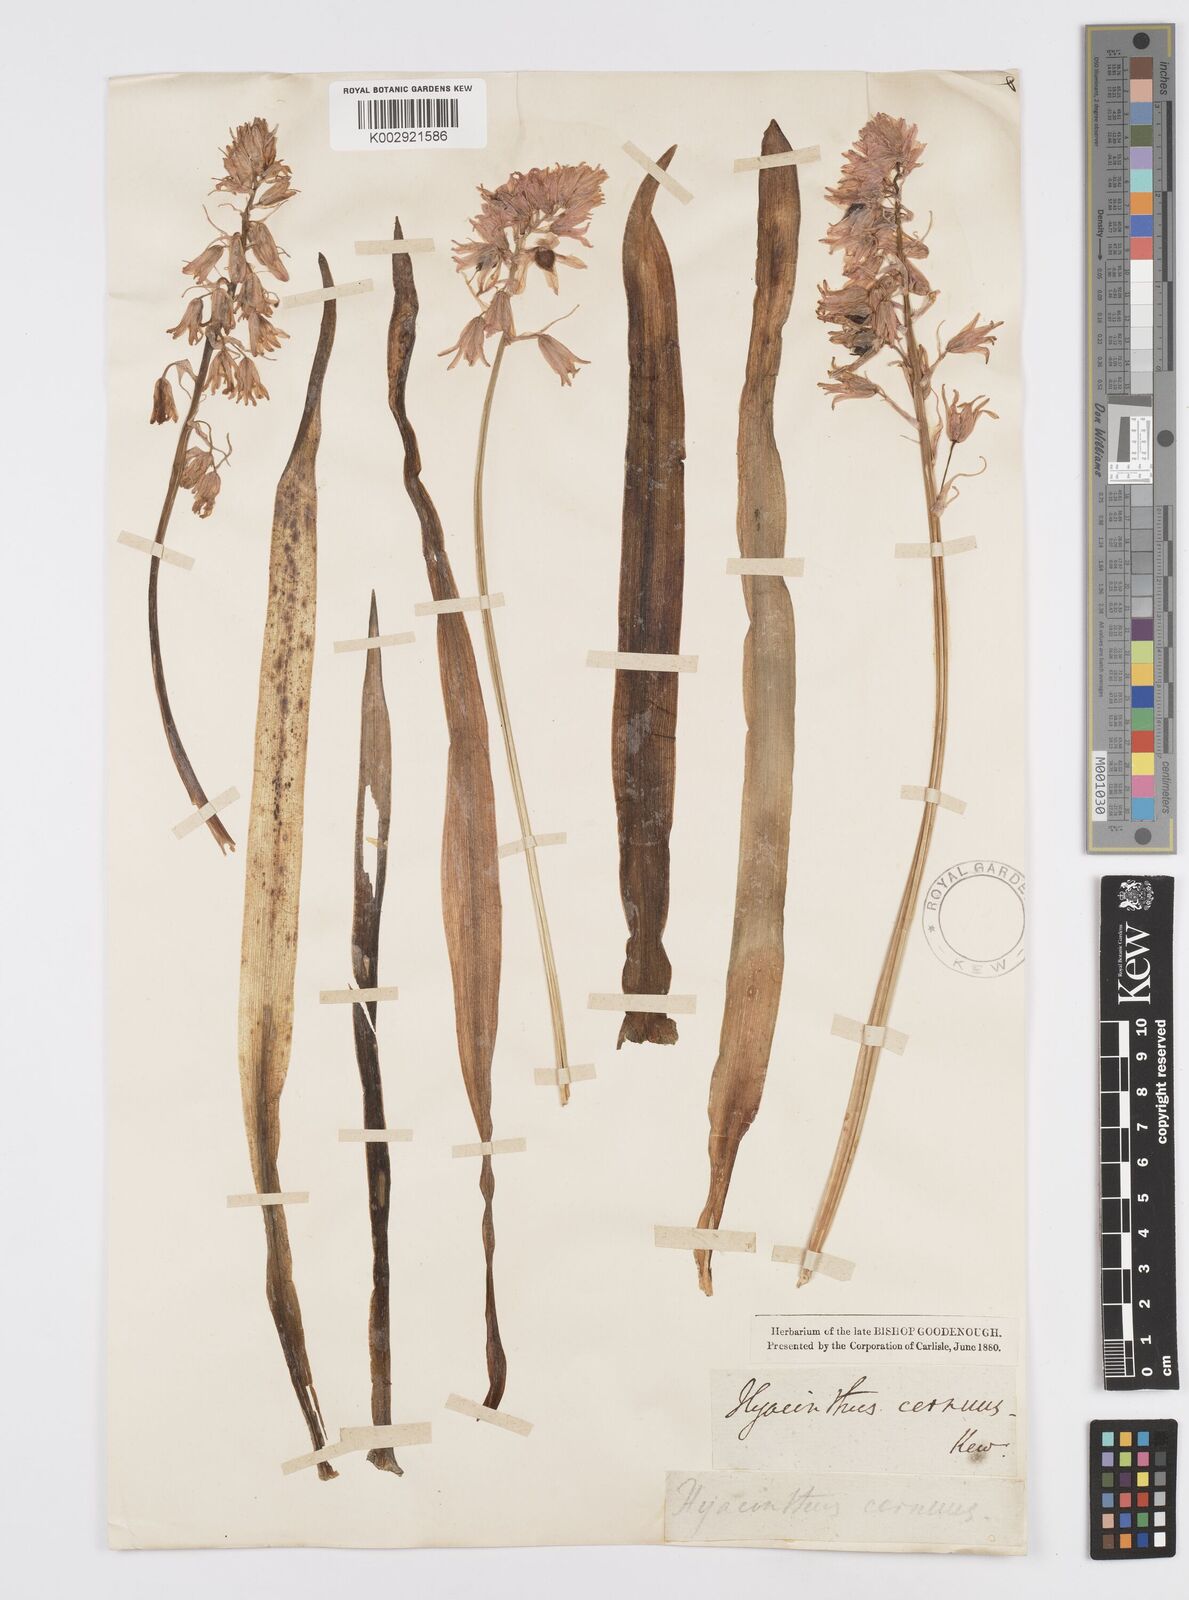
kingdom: Plantae
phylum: Tracheophyta
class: Liliopsida
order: Asparagales
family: Asparagaceae
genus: Hyacinthoides
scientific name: Hyacinthoides non-scripta
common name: Bluebell
